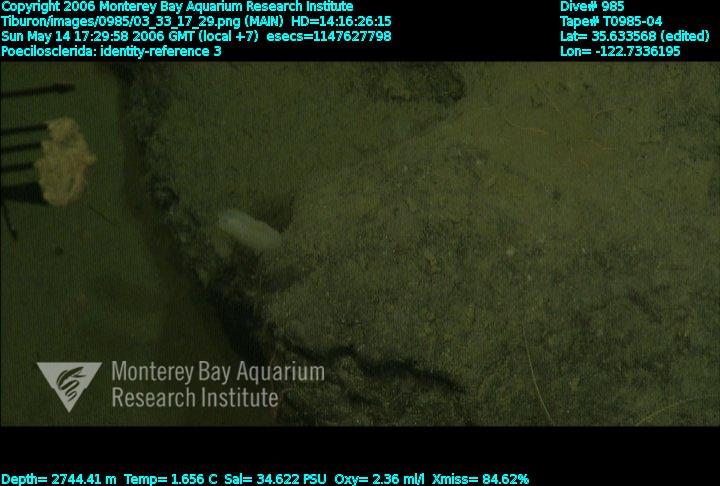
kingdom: Animalia
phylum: Porifera
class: Demospongiae
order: Poecilosclerida
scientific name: Poecilosclerida
